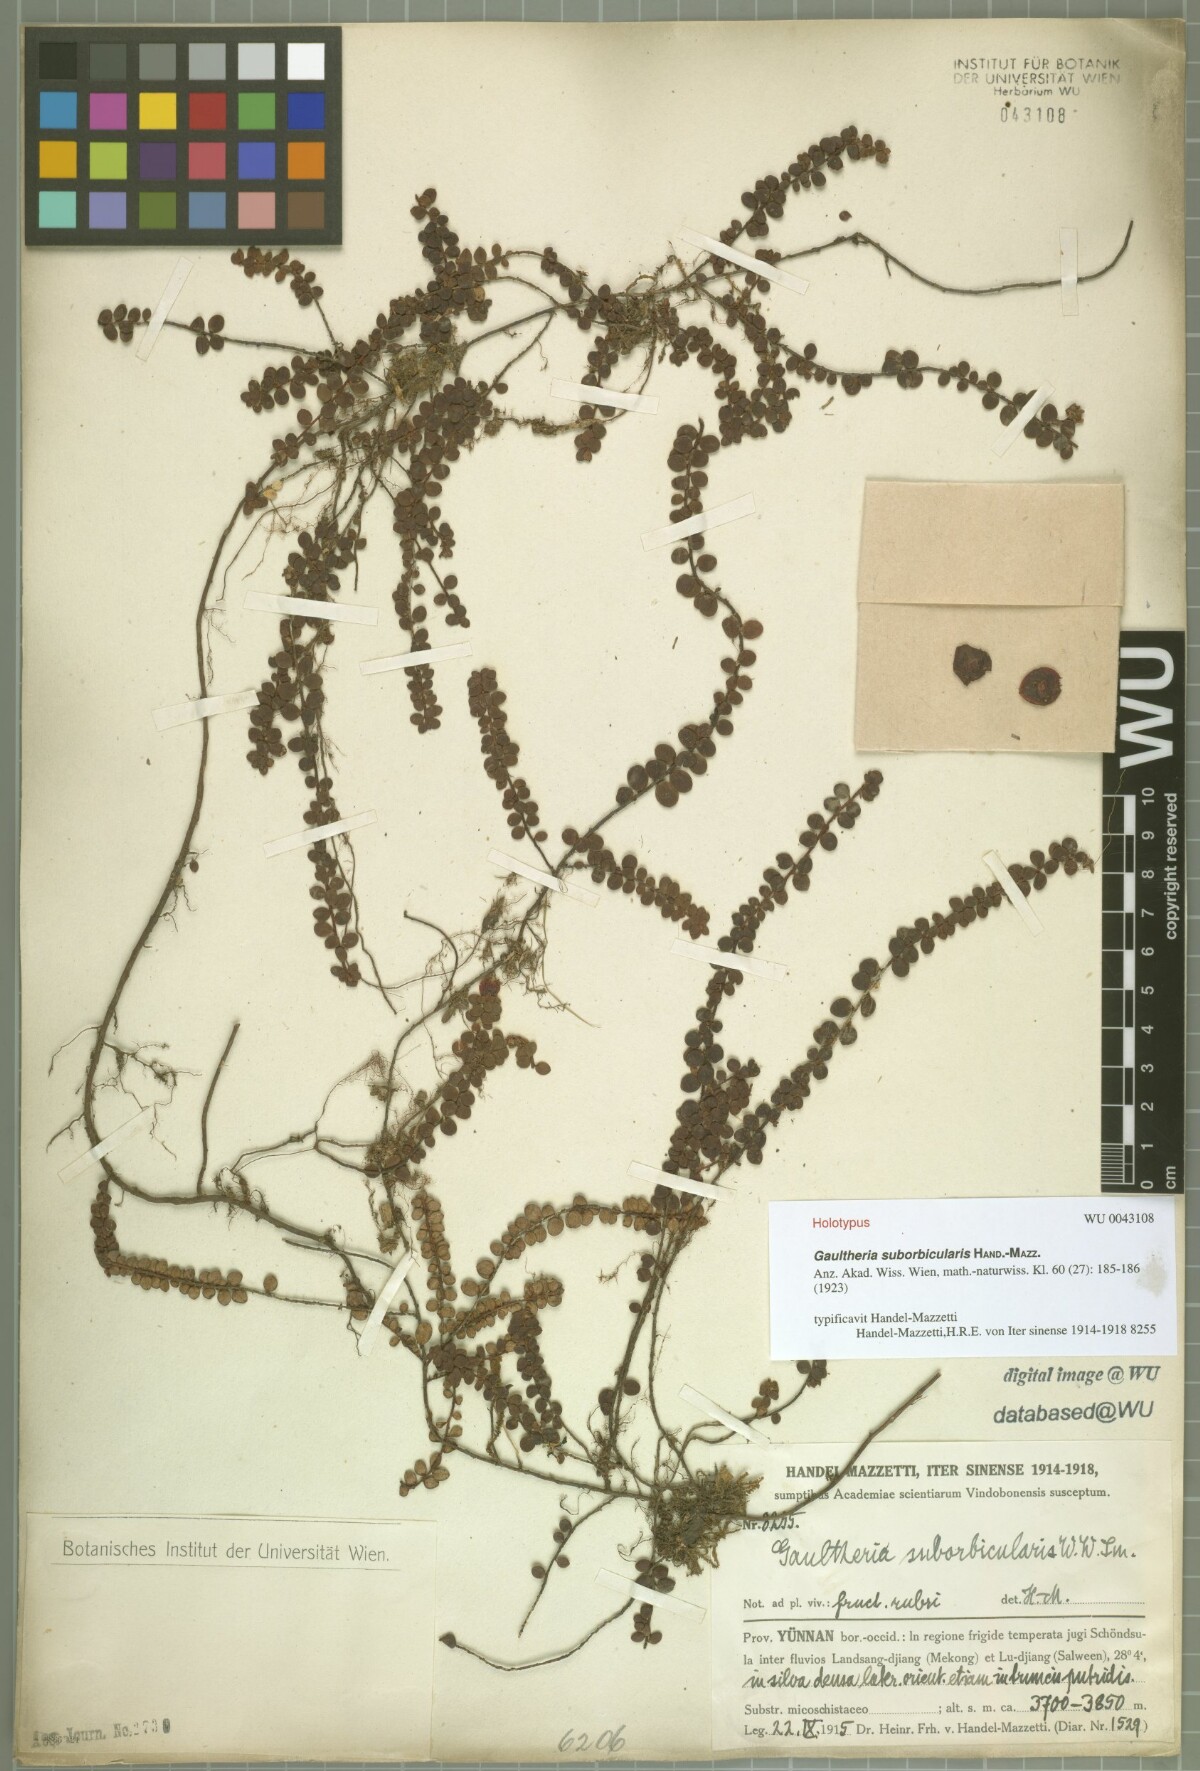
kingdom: Plantae
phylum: Tracheophyta
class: Magnoliopsida
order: Ericales
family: Ericaceae
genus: Gaultheria
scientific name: Gaultheria albiflora
